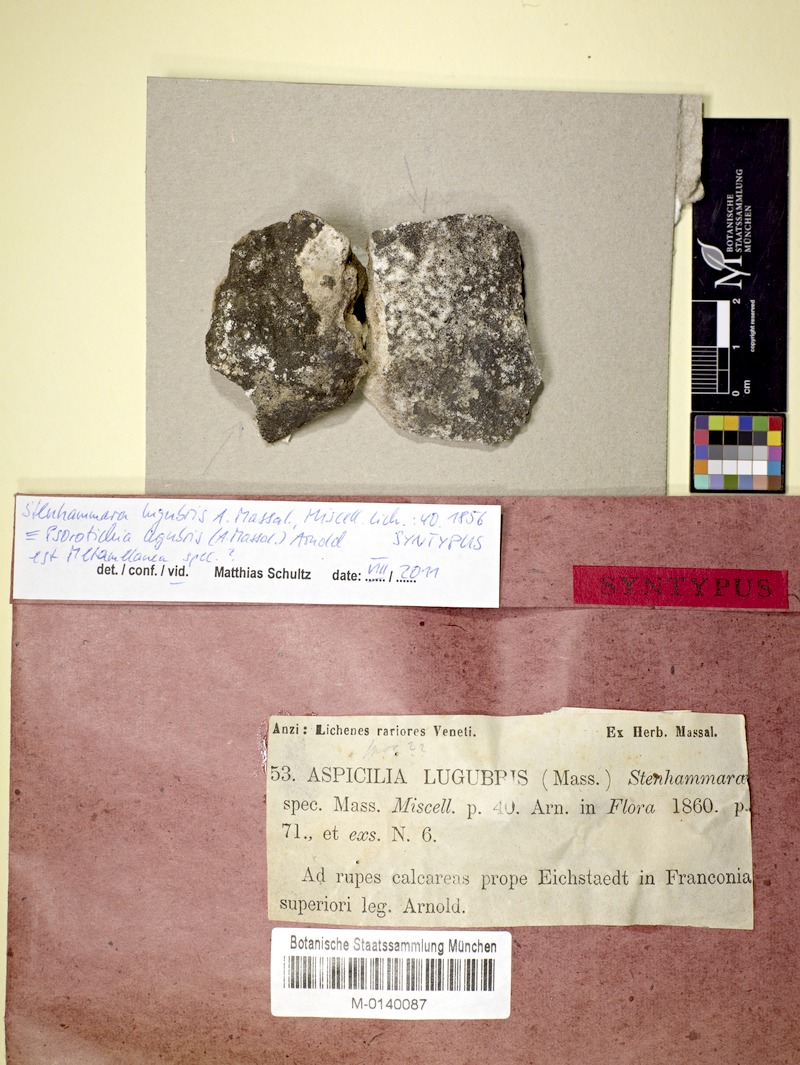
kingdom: Fungi
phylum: Ascomycota
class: Lecanoromycetes
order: Schaereriales
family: Schaereriaceae
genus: Ropalospora
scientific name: Ropalospora lugubris
